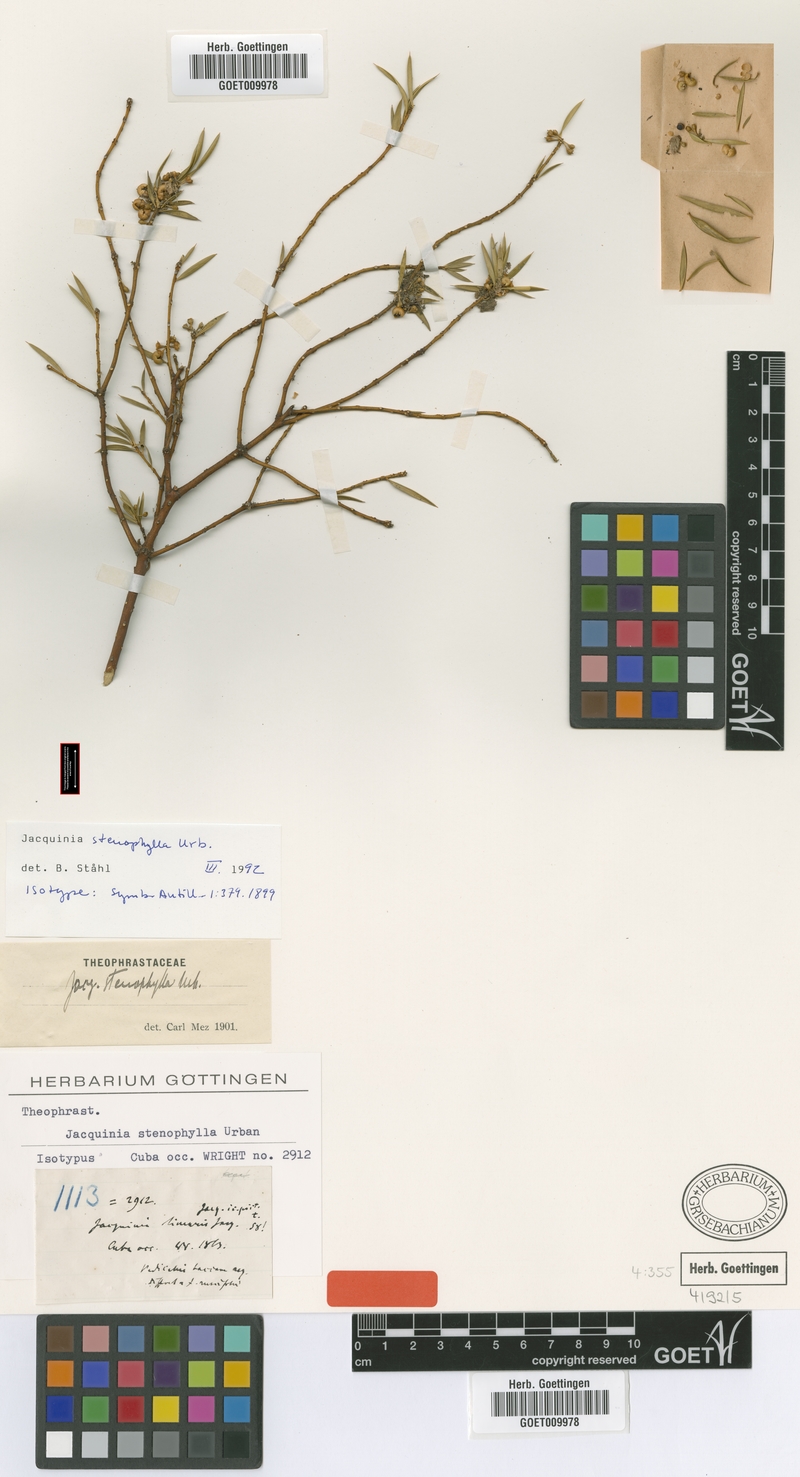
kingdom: Plantae
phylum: Tracheophyta
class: Magnoliopsida
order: Ericales
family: Primulaceae
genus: Bonellia
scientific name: Bonellia stenophylla
